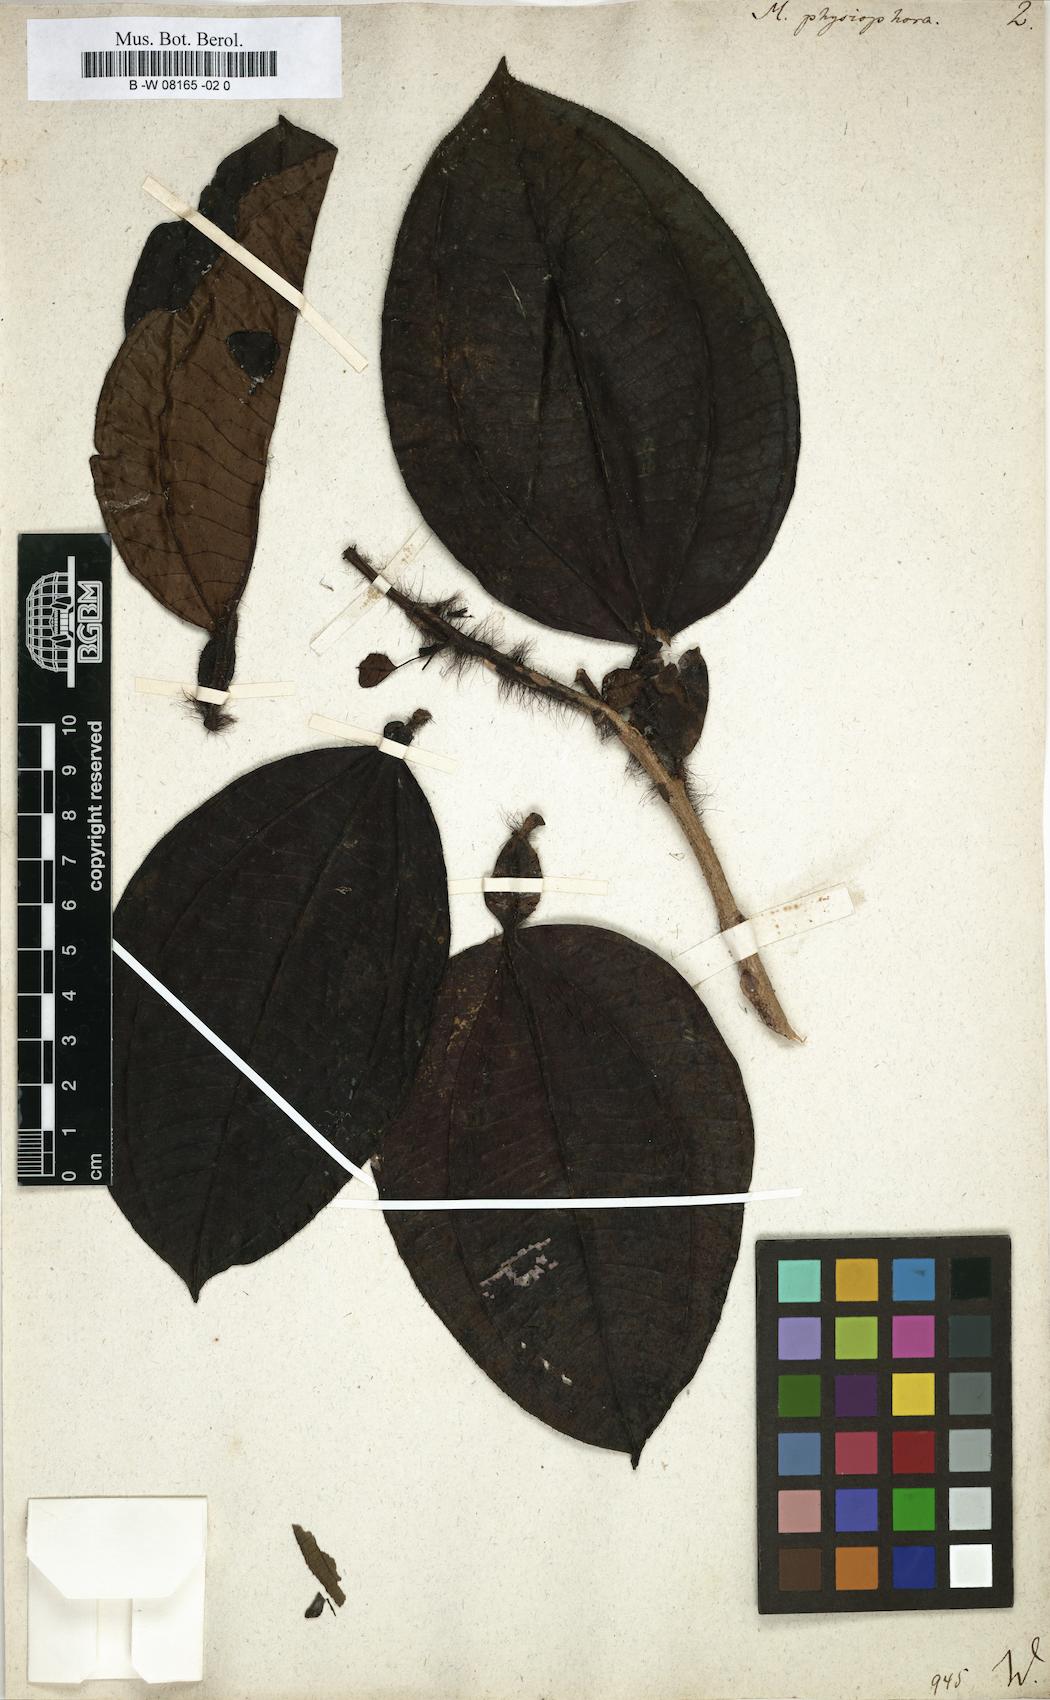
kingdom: Plantae
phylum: Tracheophyta
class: Magnoliopsida
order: Myrtales
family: Melastomataceae
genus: Miconia
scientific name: Miconia tococa
